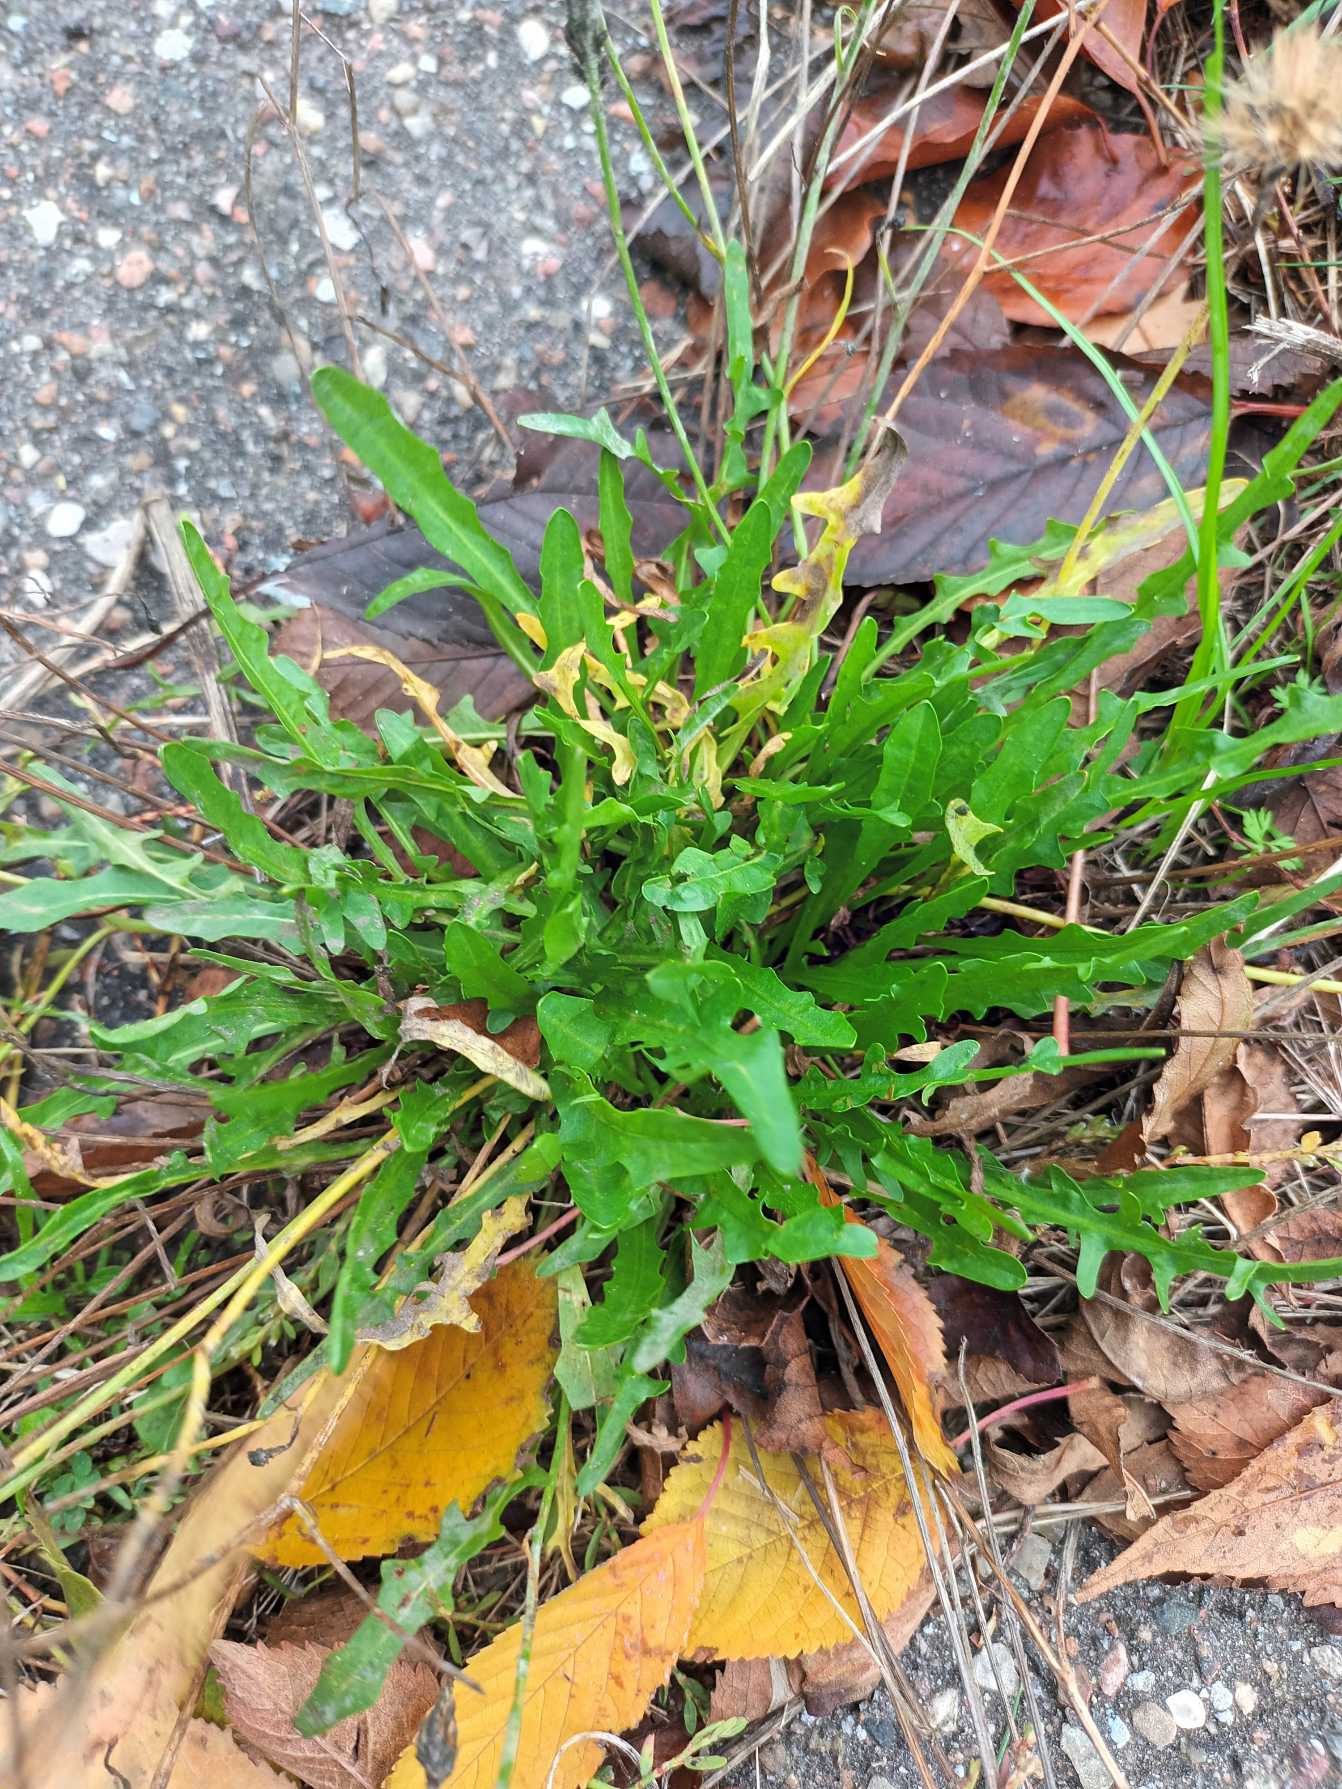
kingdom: Plantae
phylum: Tracheophyta
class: Magnoliopsida
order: Asterales
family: Asteraceae
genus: Scorzoneroides
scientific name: Scorzoneroides autumnalis
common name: Høst-borst
